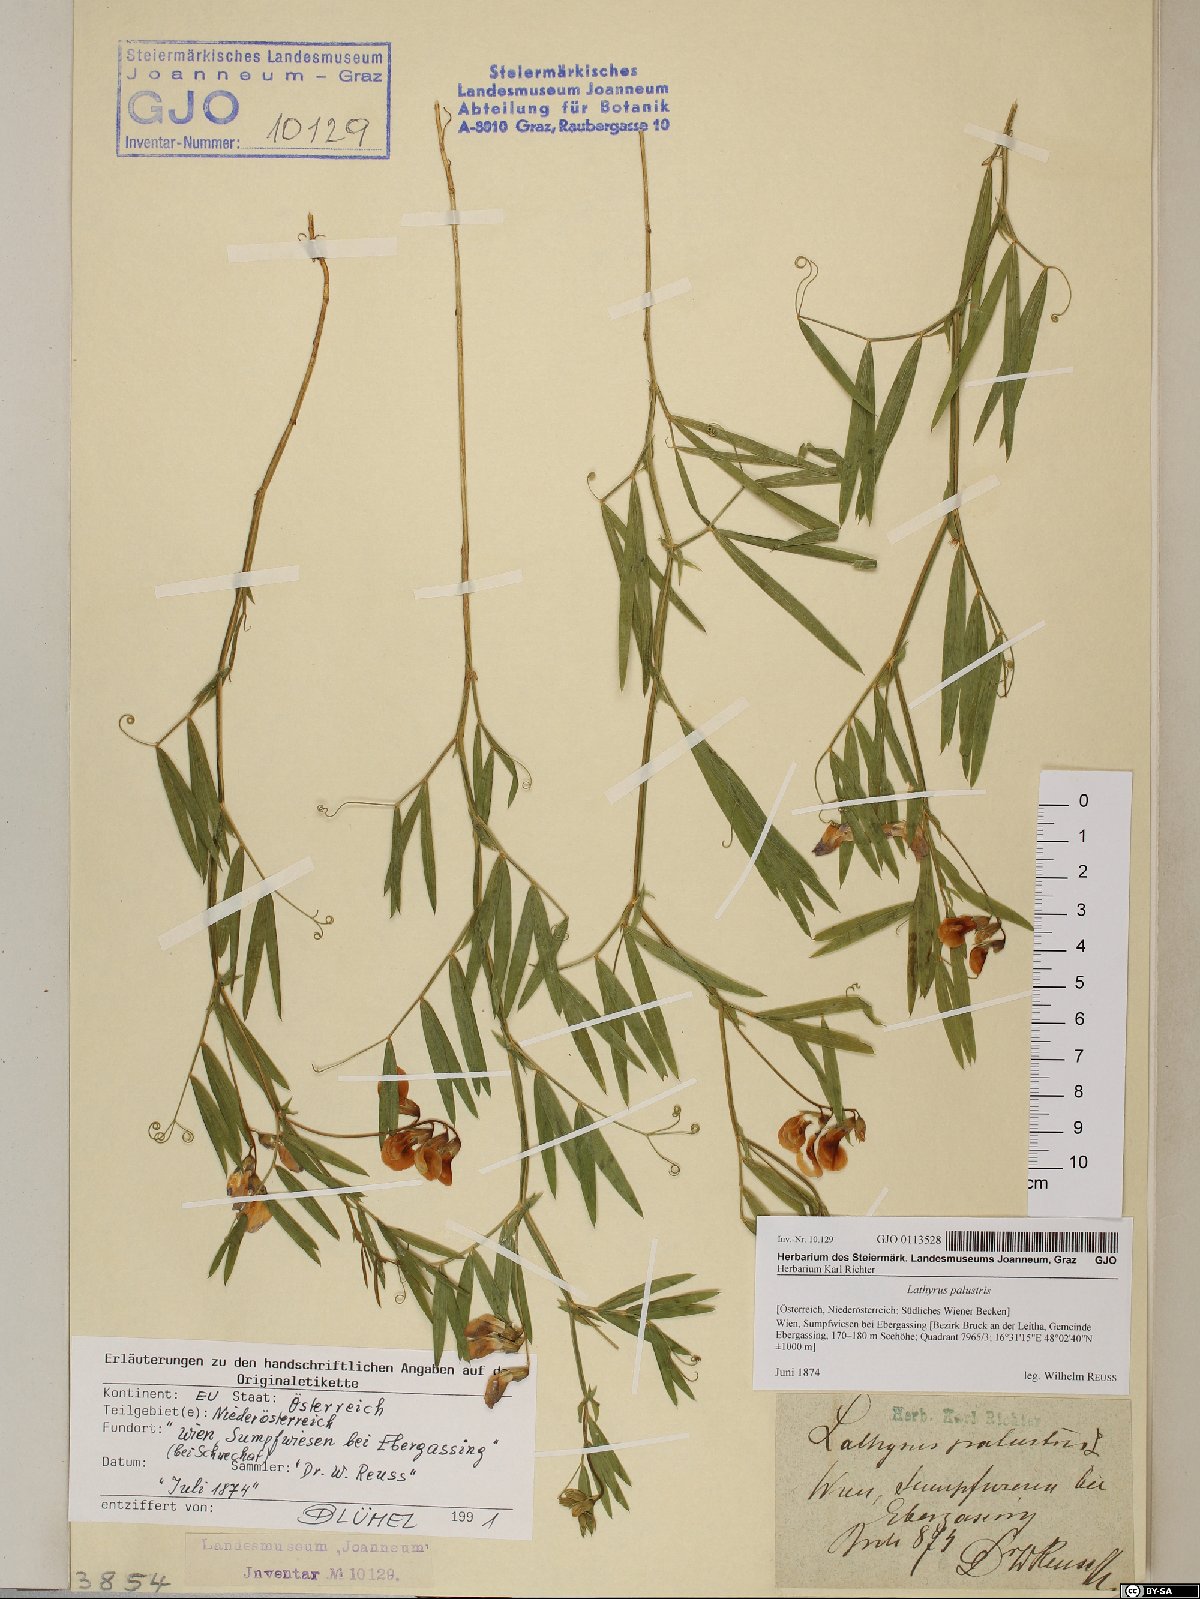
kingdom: Plantae
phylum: Tracheophyta
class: Magnoliopsida
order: Fabales
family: Fabaceae
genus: Lathyrus
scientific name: Lathyrus palustris
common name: Marsh pea
